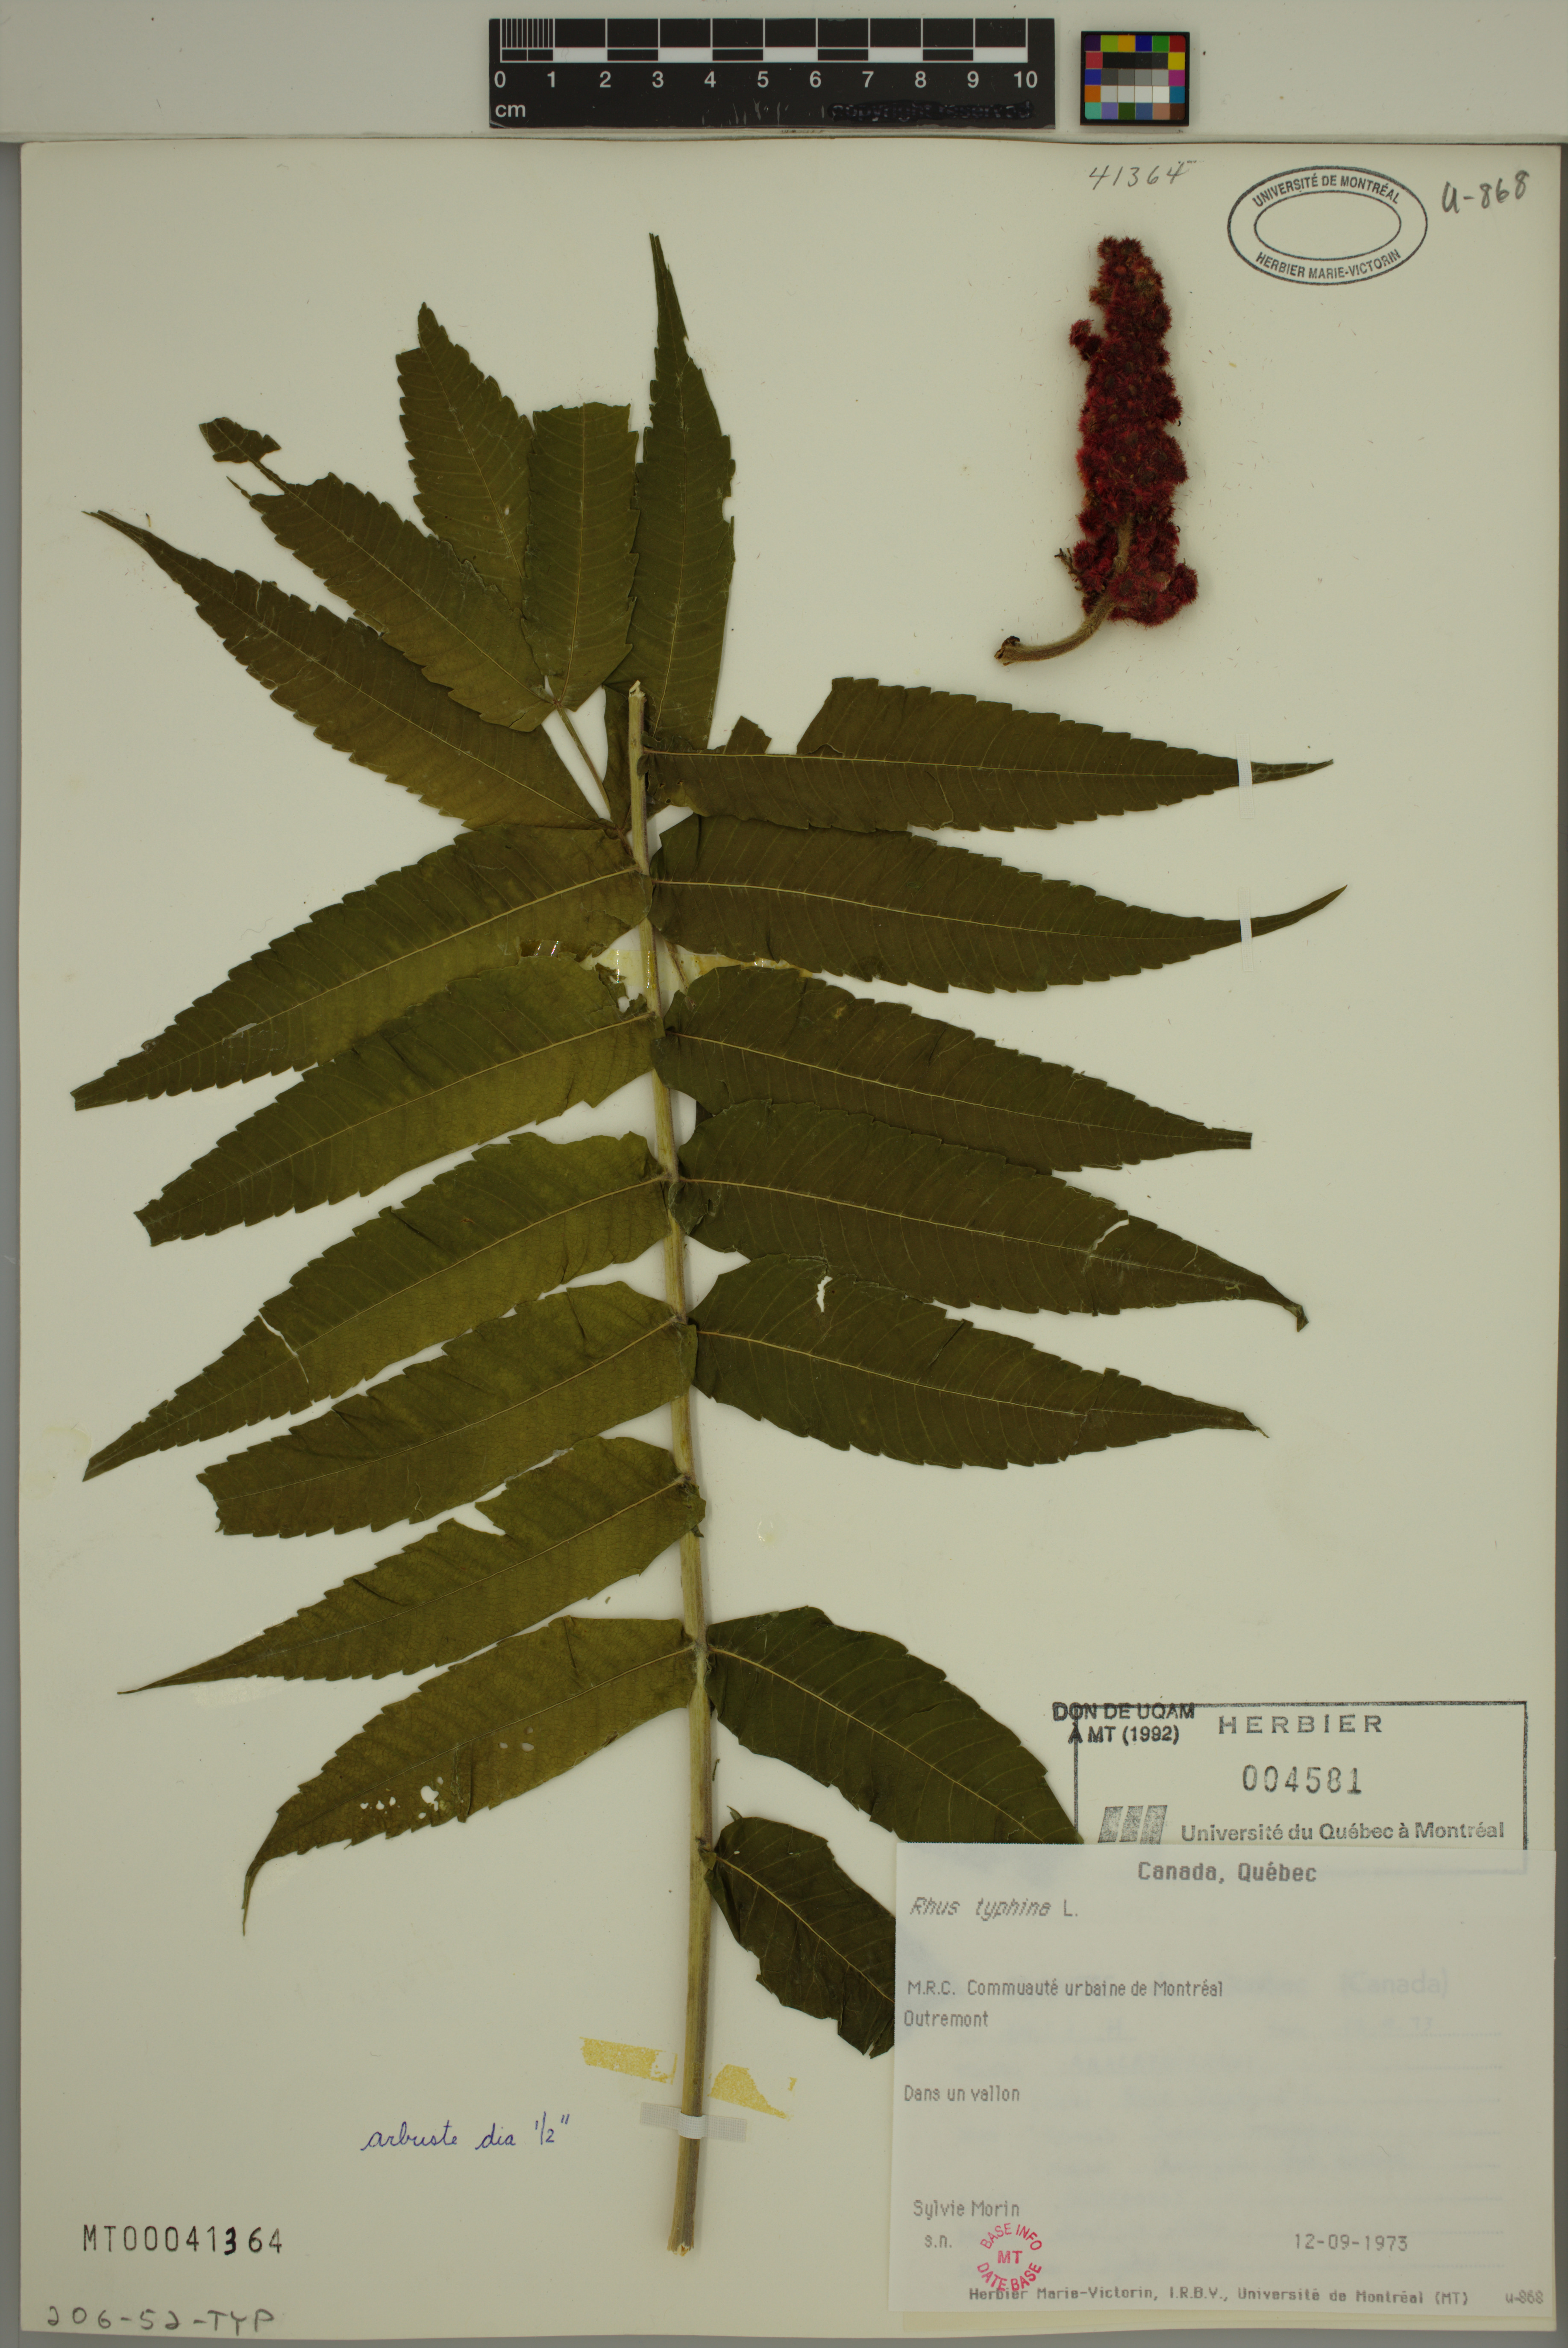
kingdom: Plantae
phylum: Tracheophyta
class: Magnoliopsida
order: Sapindales
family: Anacardiaceae
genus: Rhus
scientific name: Rhus typhina
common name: Staghorn sumac
